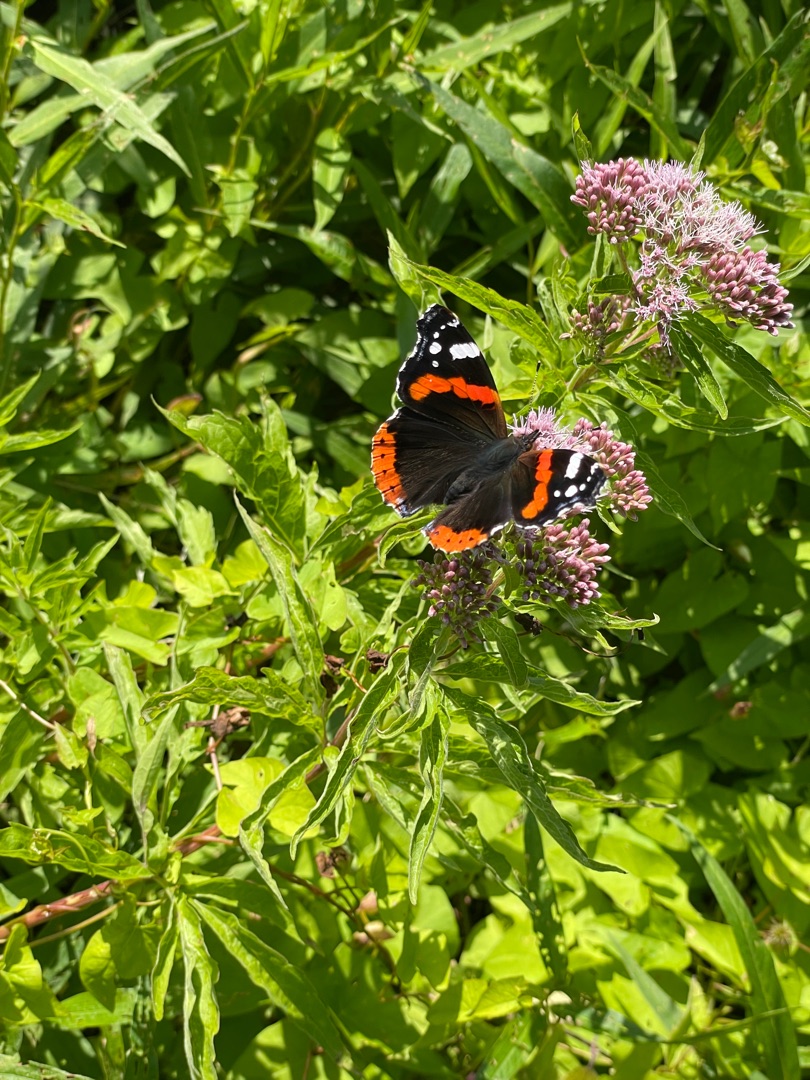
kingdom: Animalia
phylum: Arthropoda
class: Insecta
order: Lepidoptera
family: Nymphalidae
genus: Vanessa
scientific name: Vanessa atalanta
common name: Admiral
